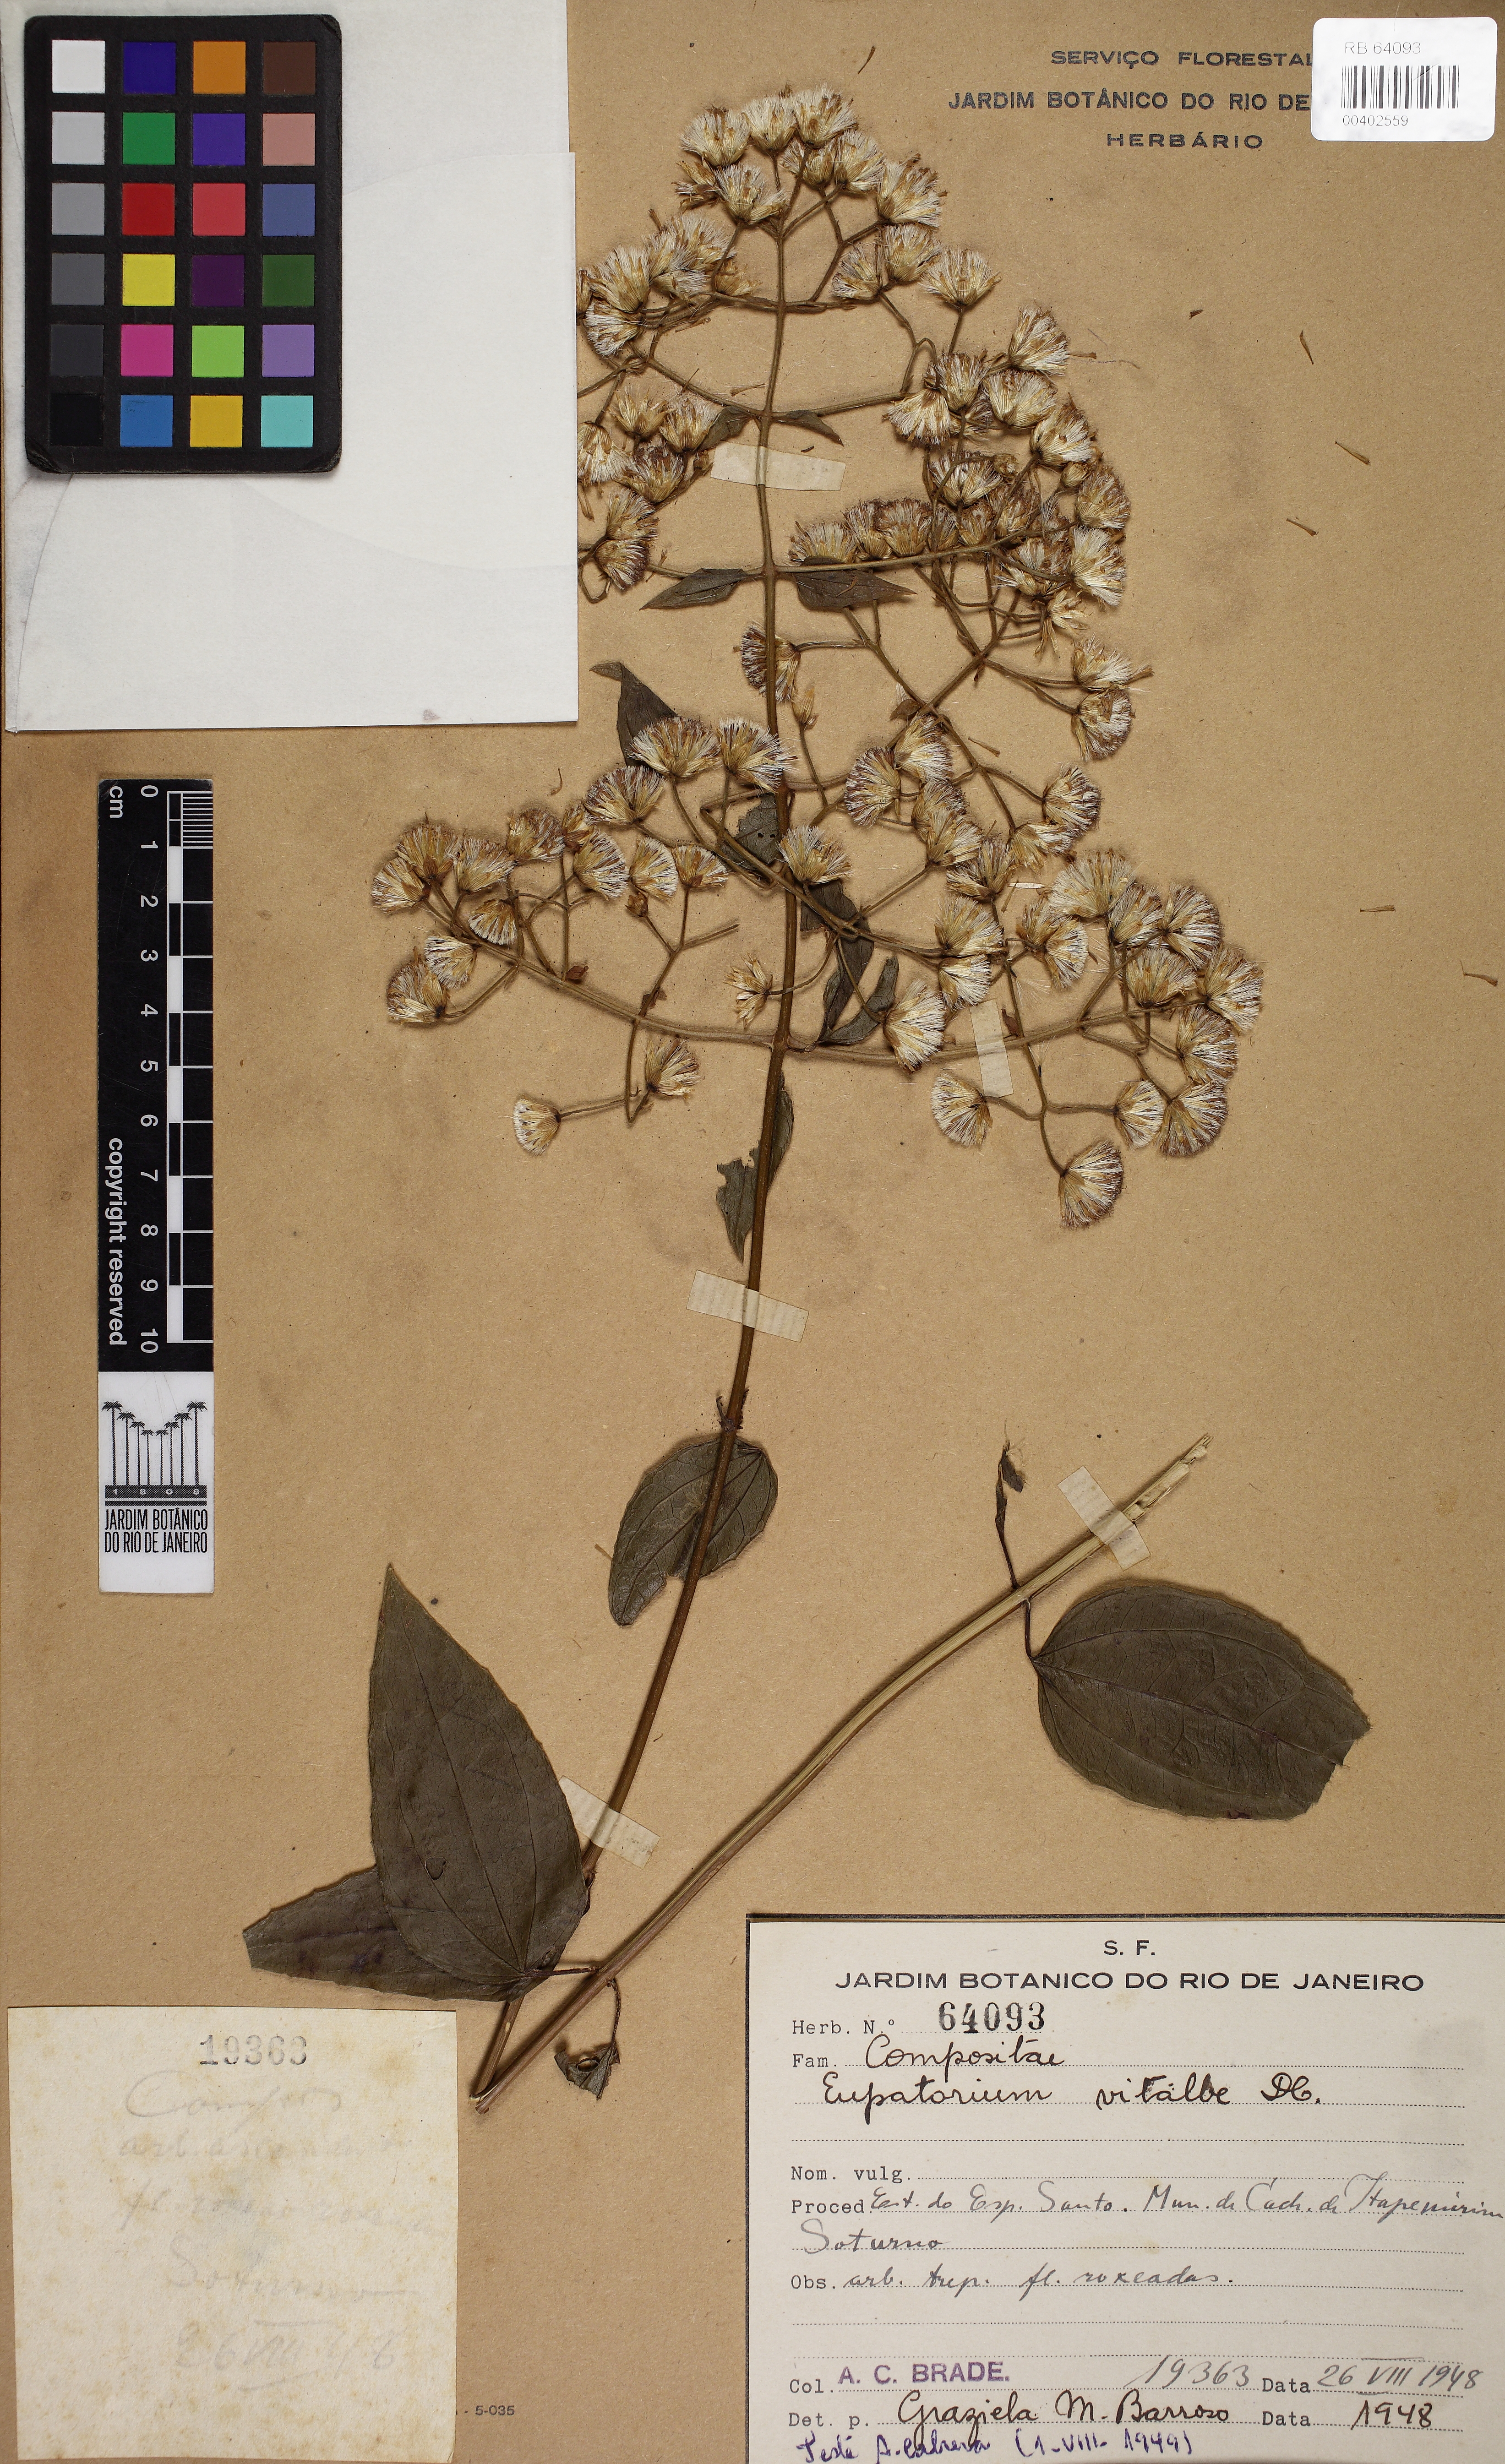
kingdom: Plantae
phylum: Tracheophyta
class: Magnoliopsida
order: Asterales
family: Asteraceae
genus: Heterocondylus
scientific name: Heterocondylus vitalbae
